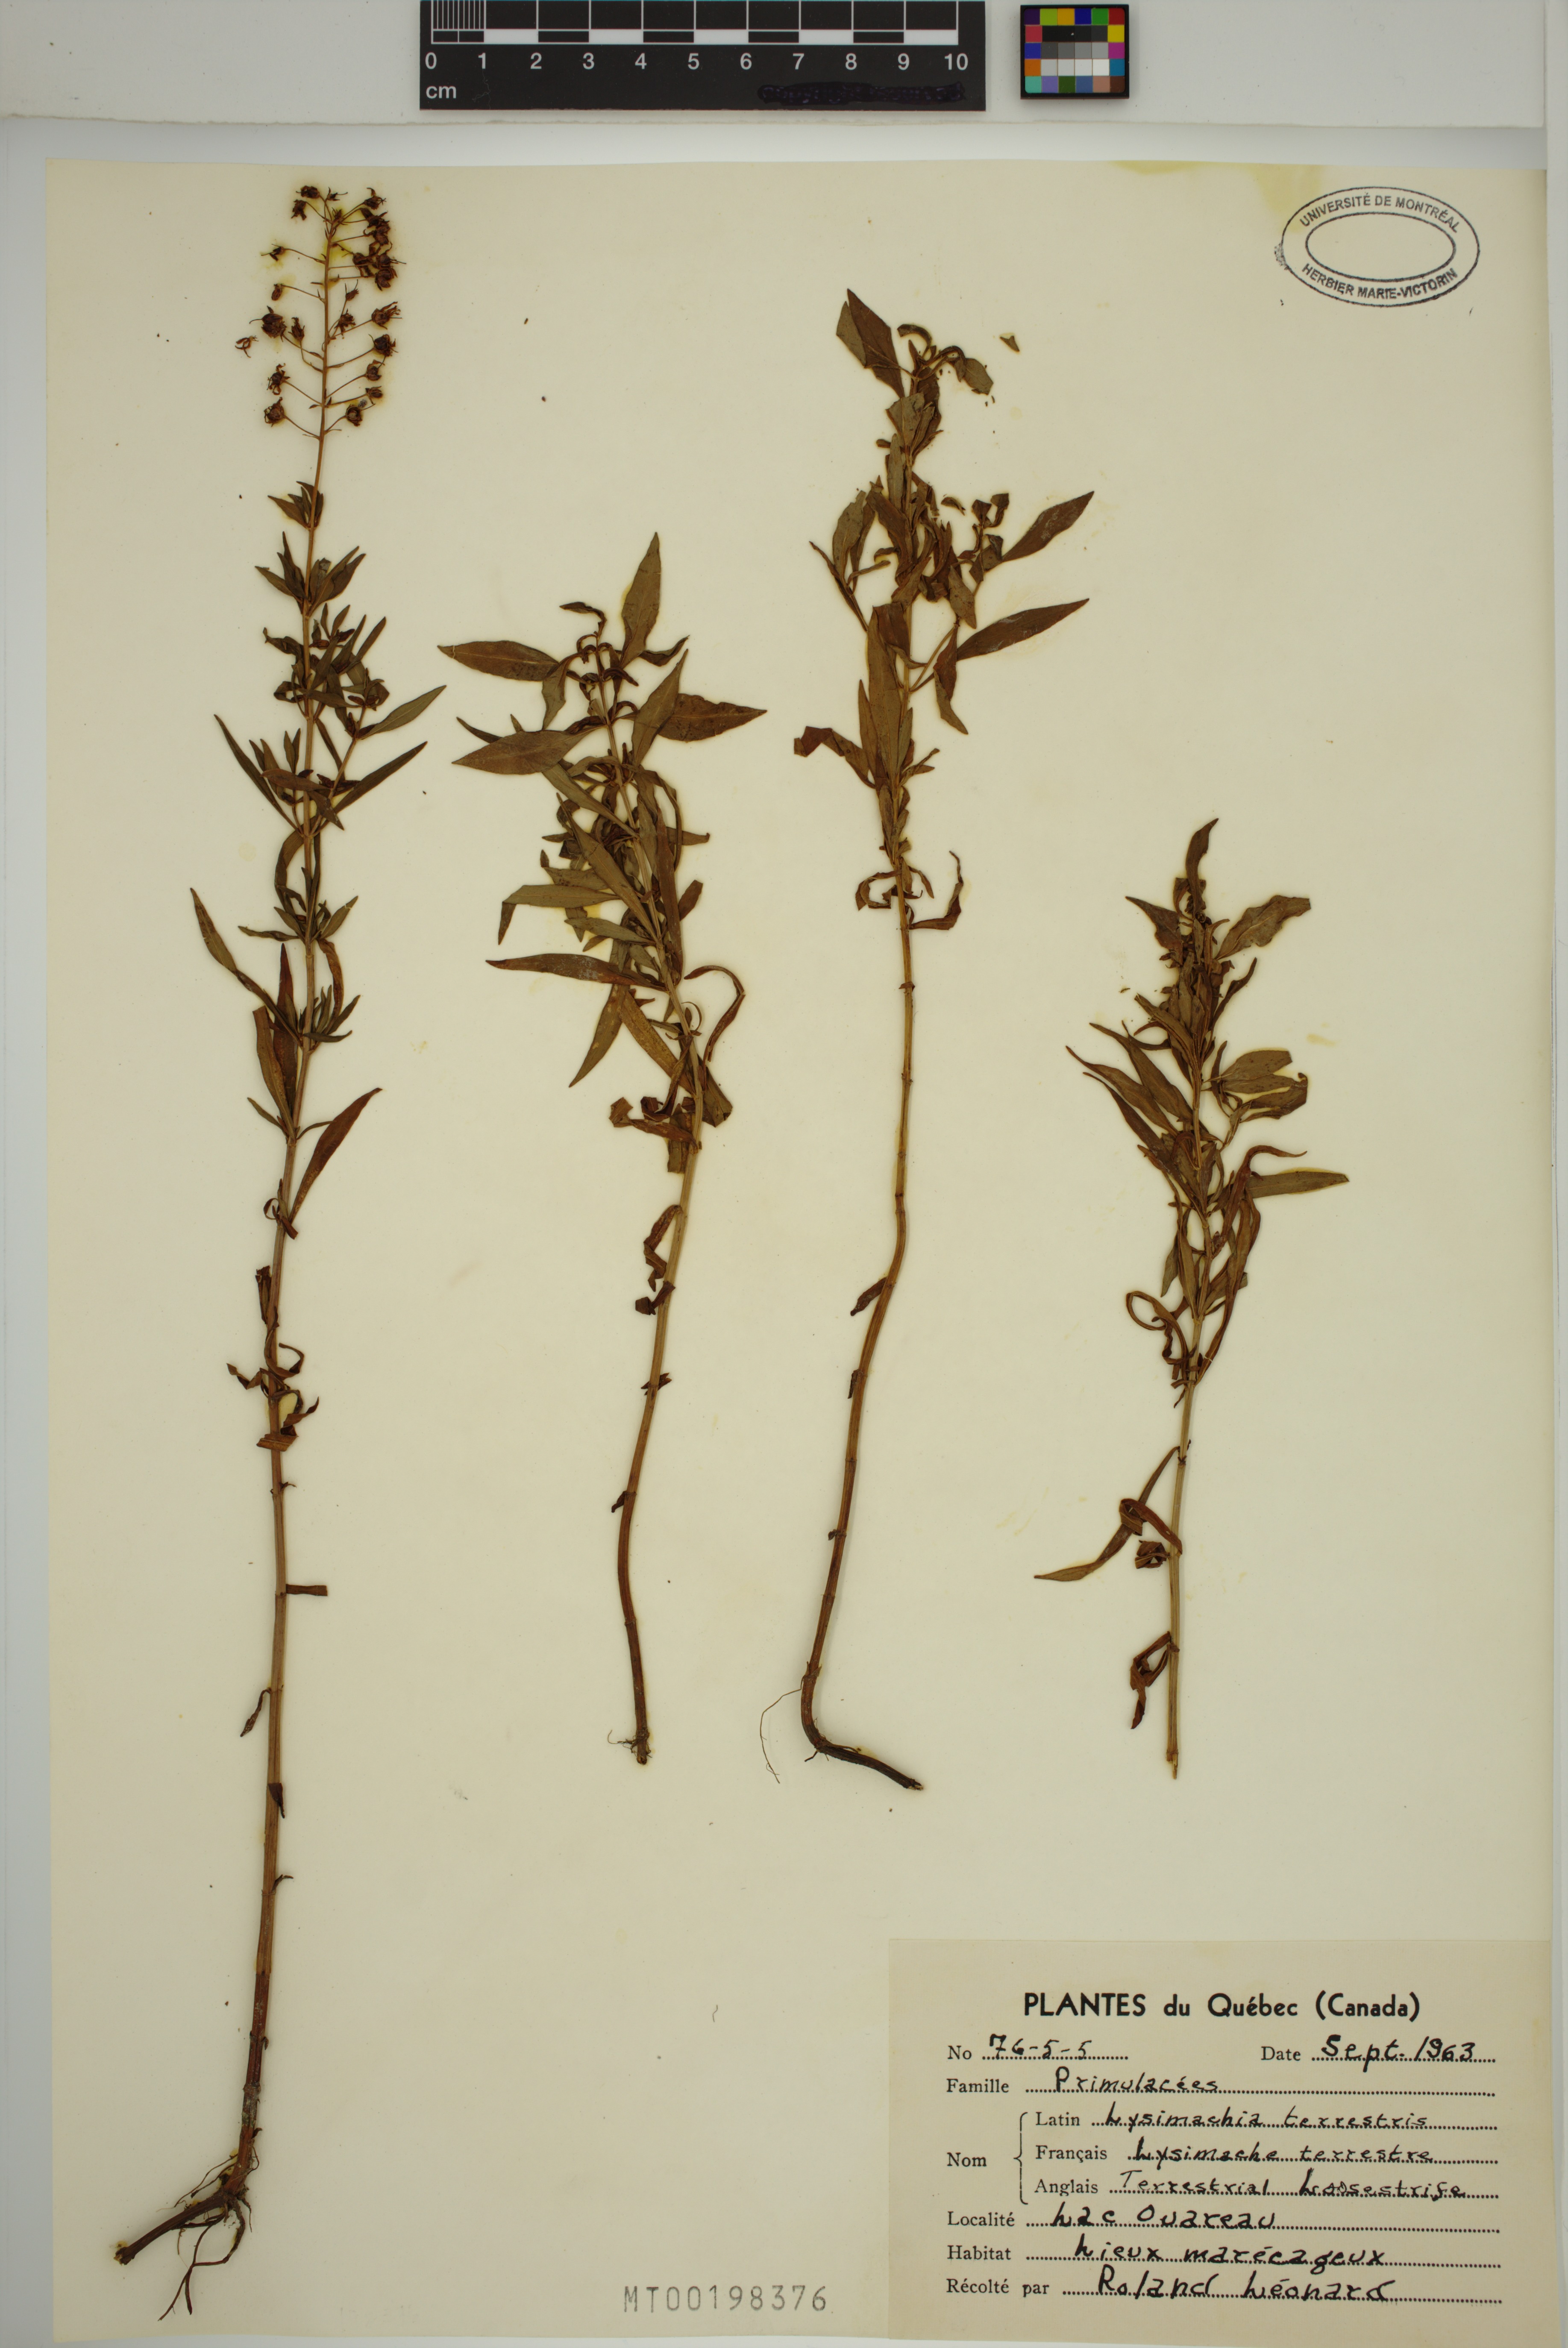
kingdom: Plantae
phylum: Tracheophyta
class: Magnoliopsida
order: Ericales
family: Primulaceae
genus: Lysimachia
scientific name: Lysimachia terrestris
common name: Lake loosestrife
